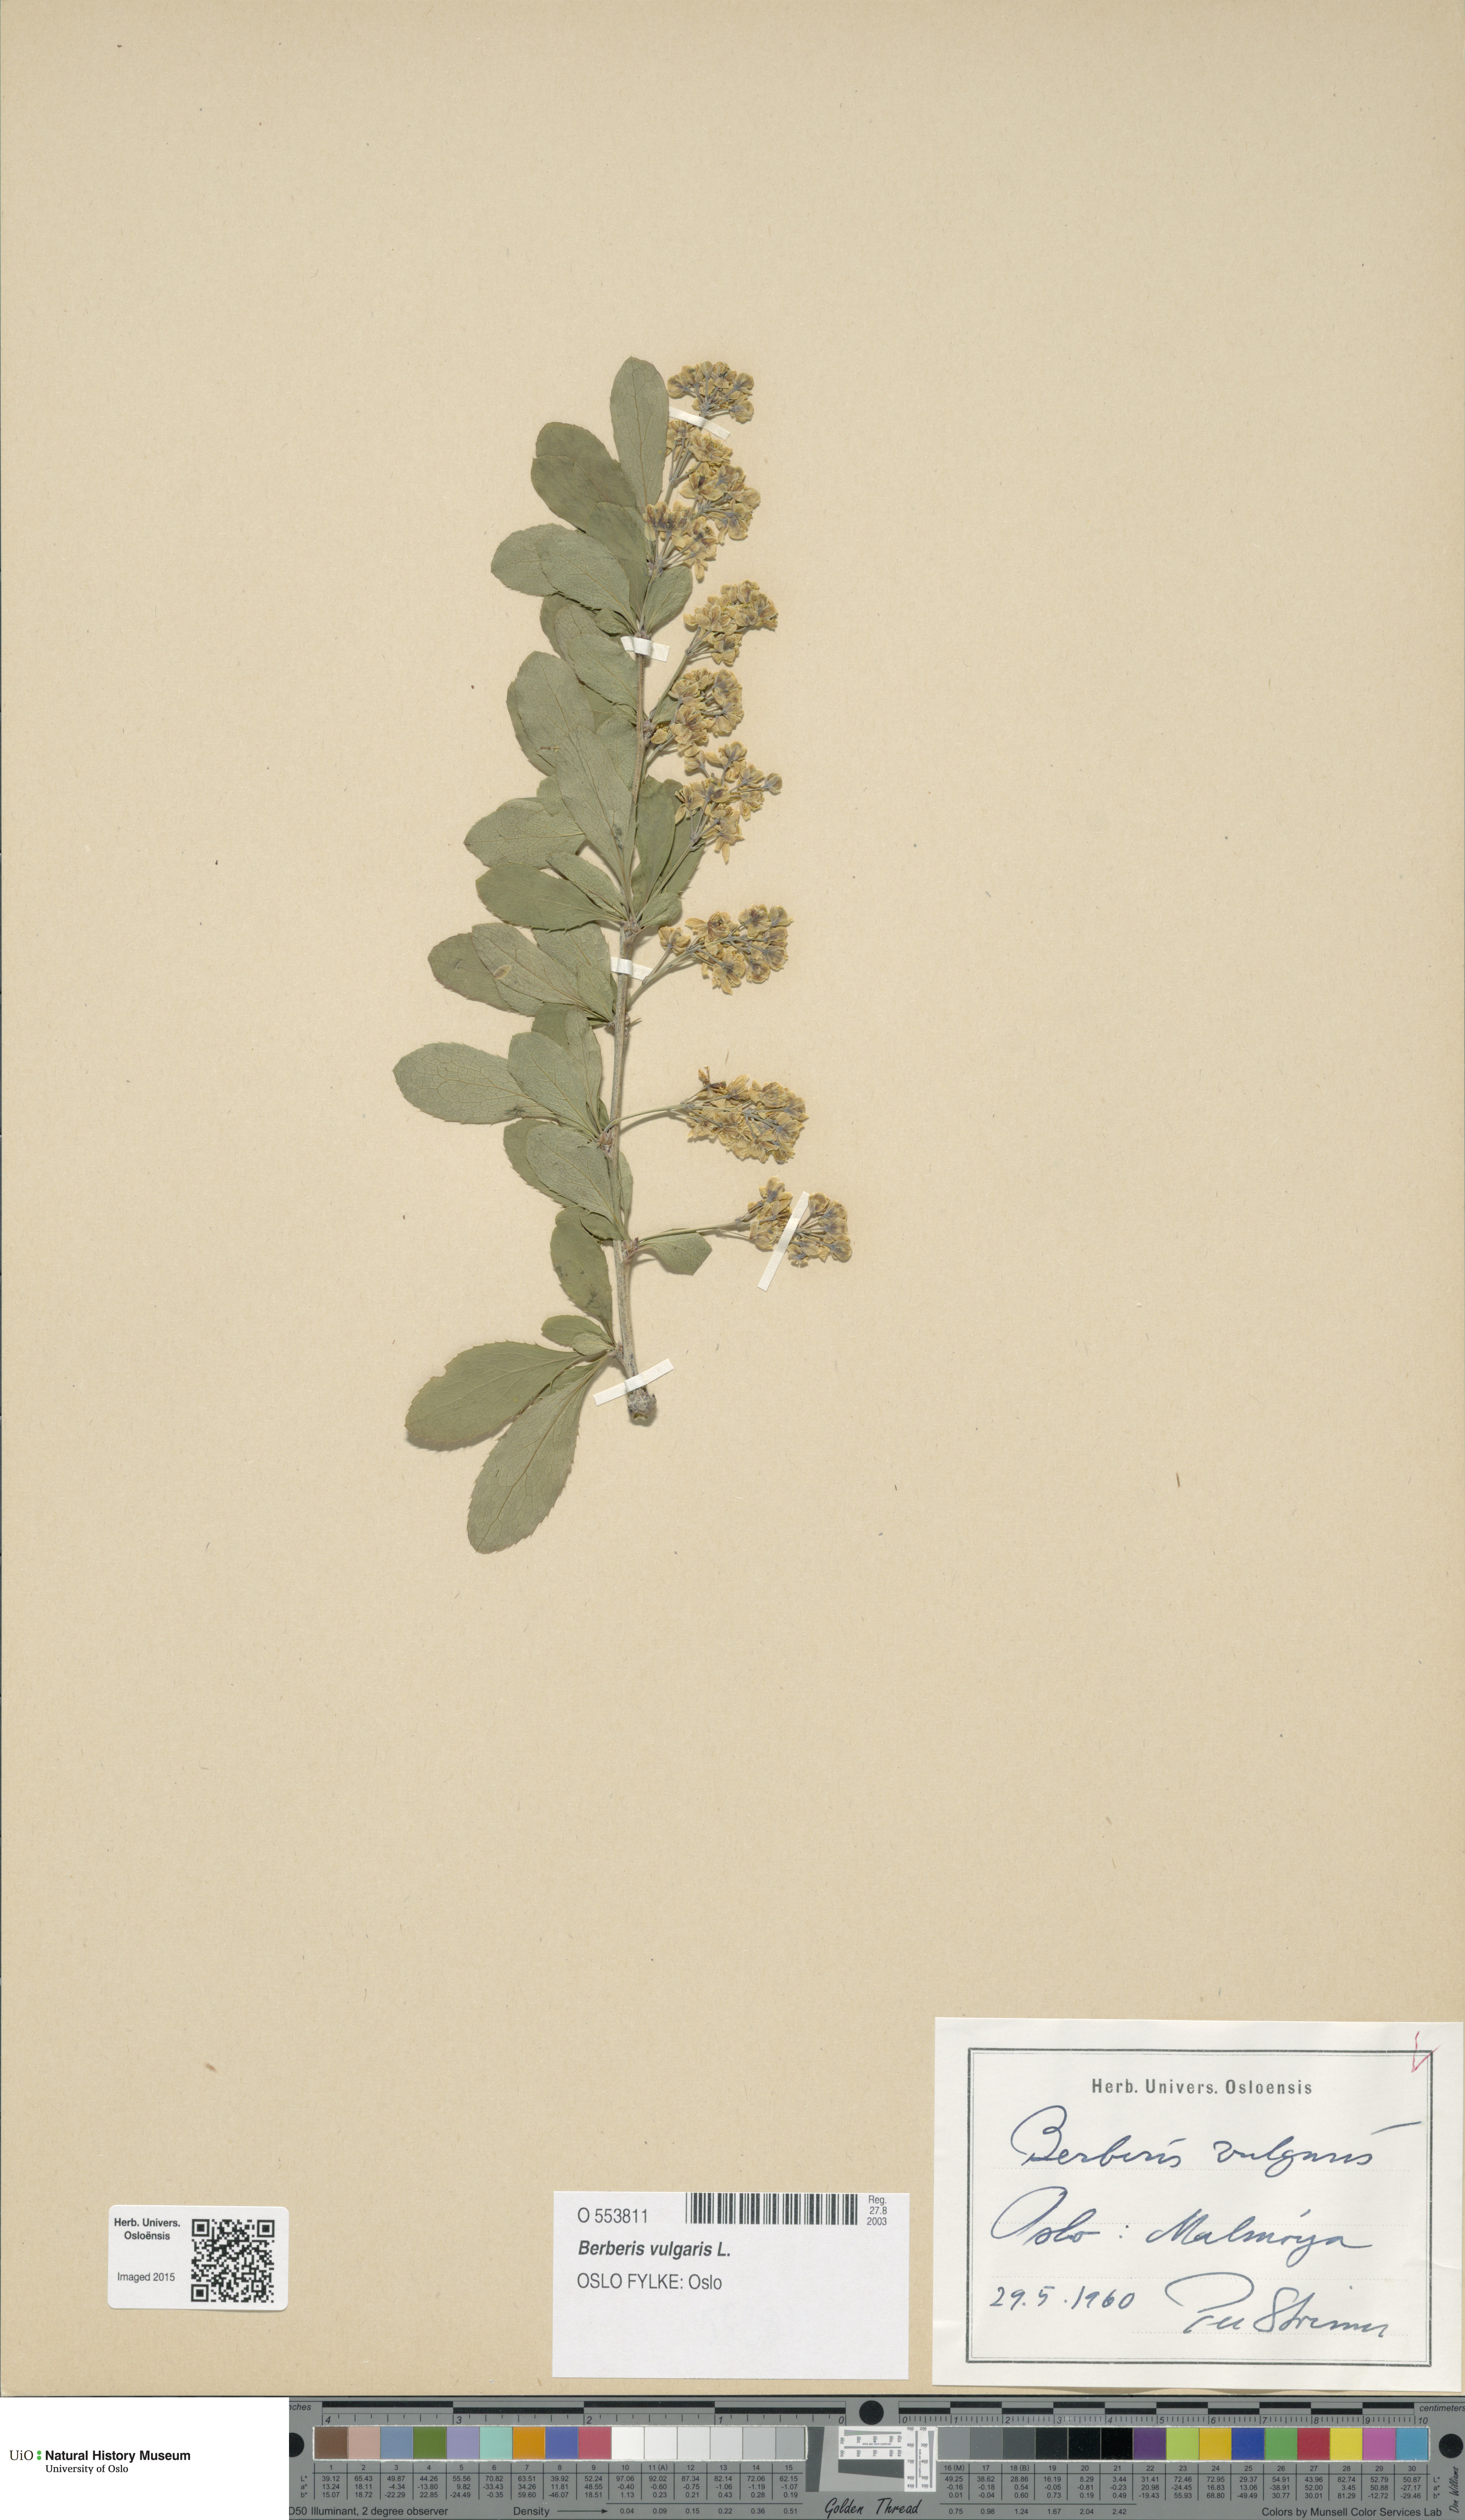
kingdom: Plantae
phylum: Tracheophyta
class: Magnoliopsida
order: Ranunculales
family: Berberidaceae
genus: Berberis
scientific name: Berberis vulgaris
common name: Barberry
